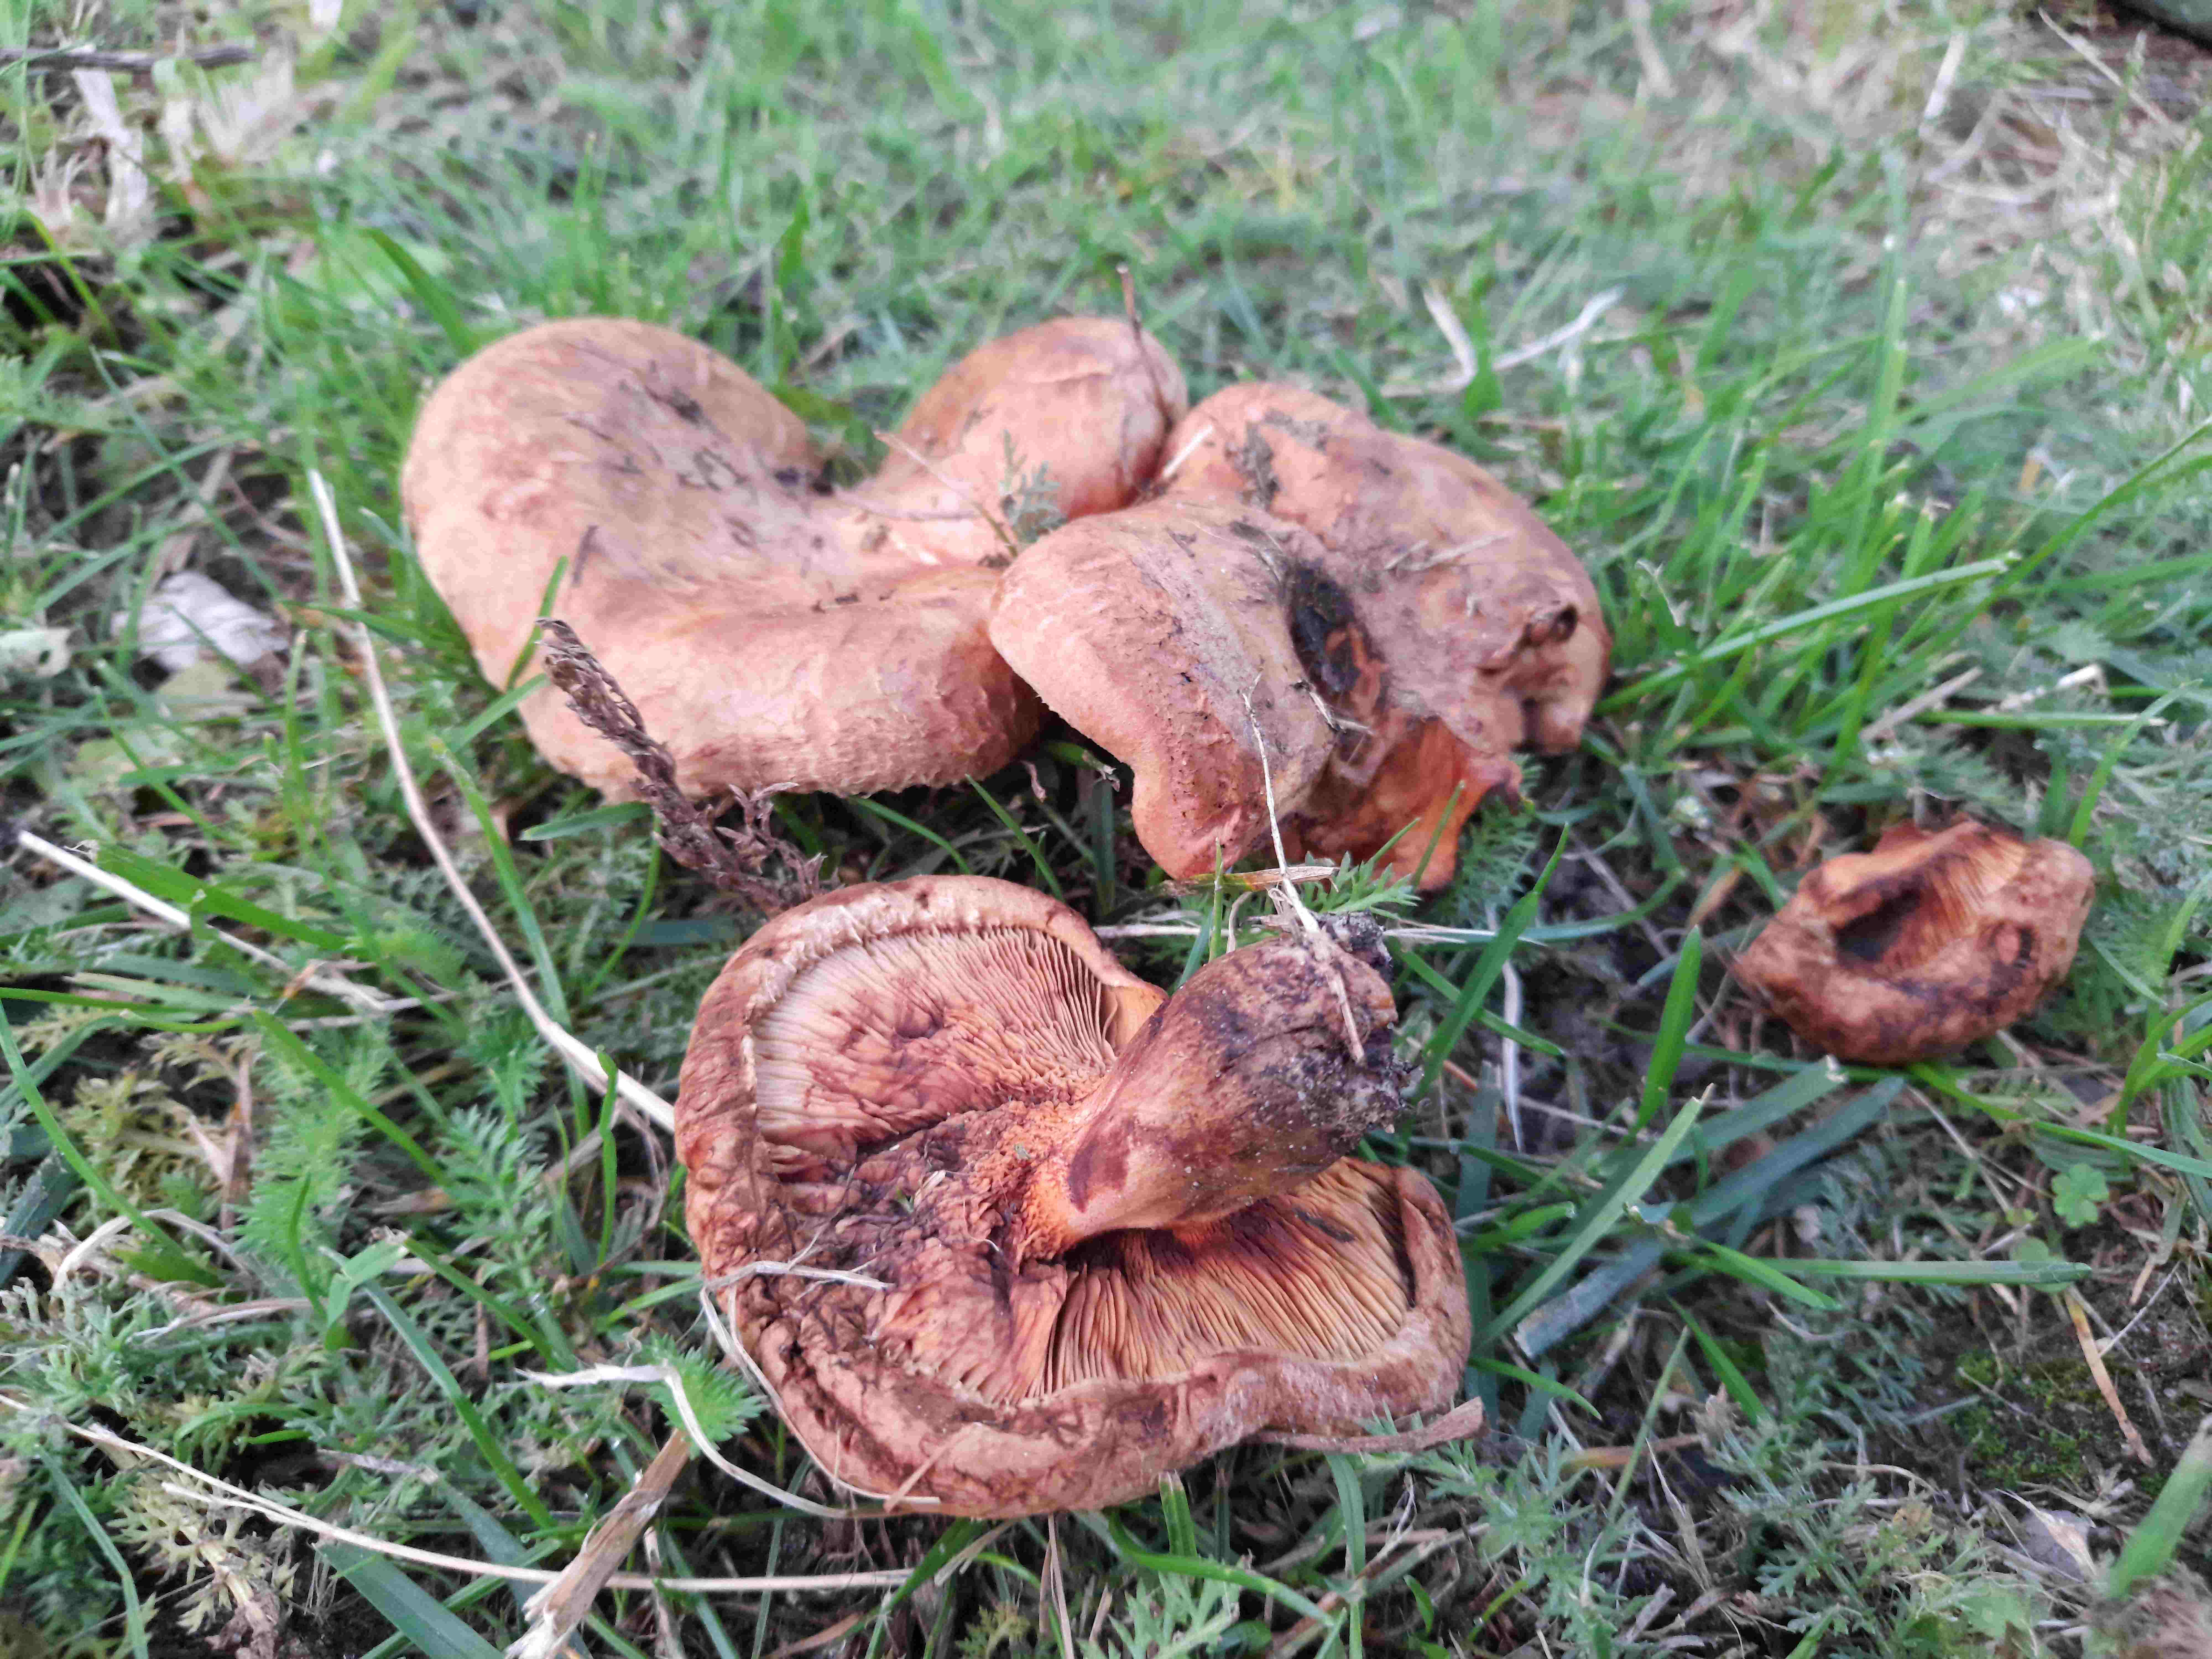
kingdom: Fungi
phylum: Basidiomycota
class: Agaricomycetes
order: Boletales
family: Paxillaceae
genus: Paxillus
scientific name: Paxillus
